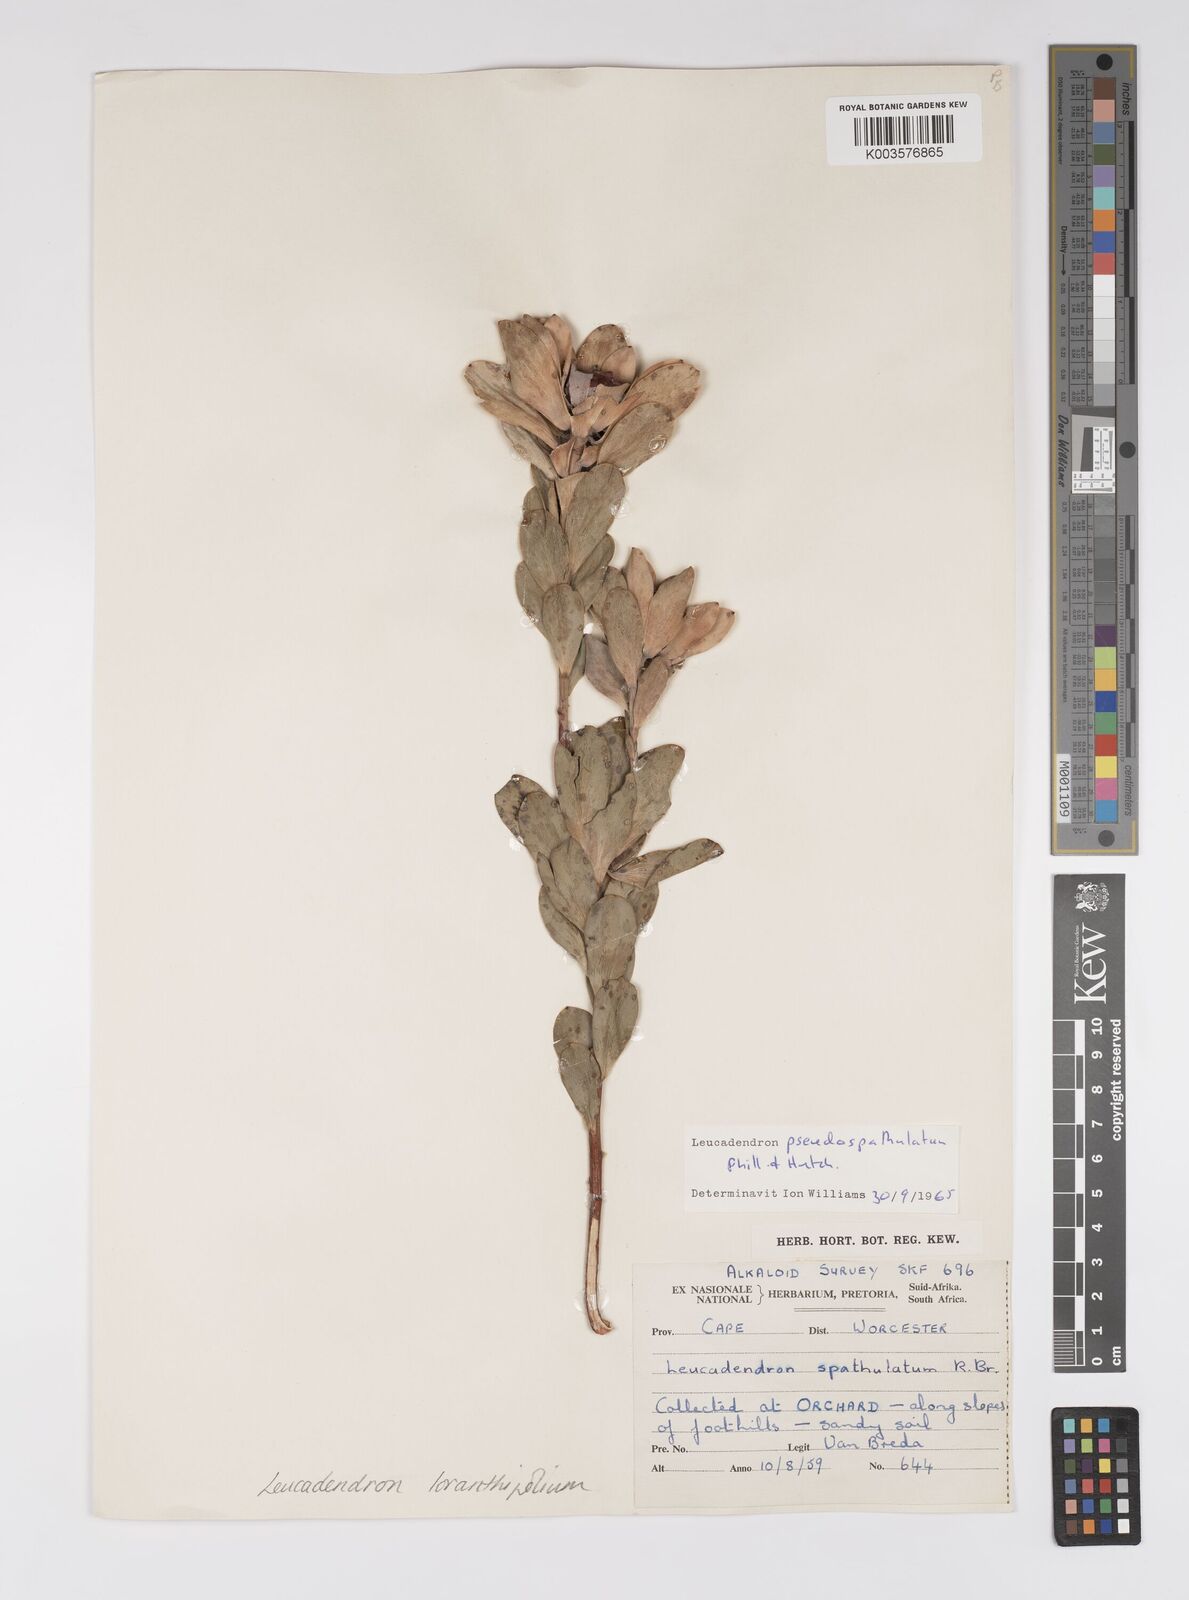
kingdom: Plantae
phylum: Tracheophyta
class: Magnoliopsida
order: Proteales
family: Proteaceae
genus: Leucadendron
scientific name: Leucadendron loranthifolium
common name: Green-flower sunbush
